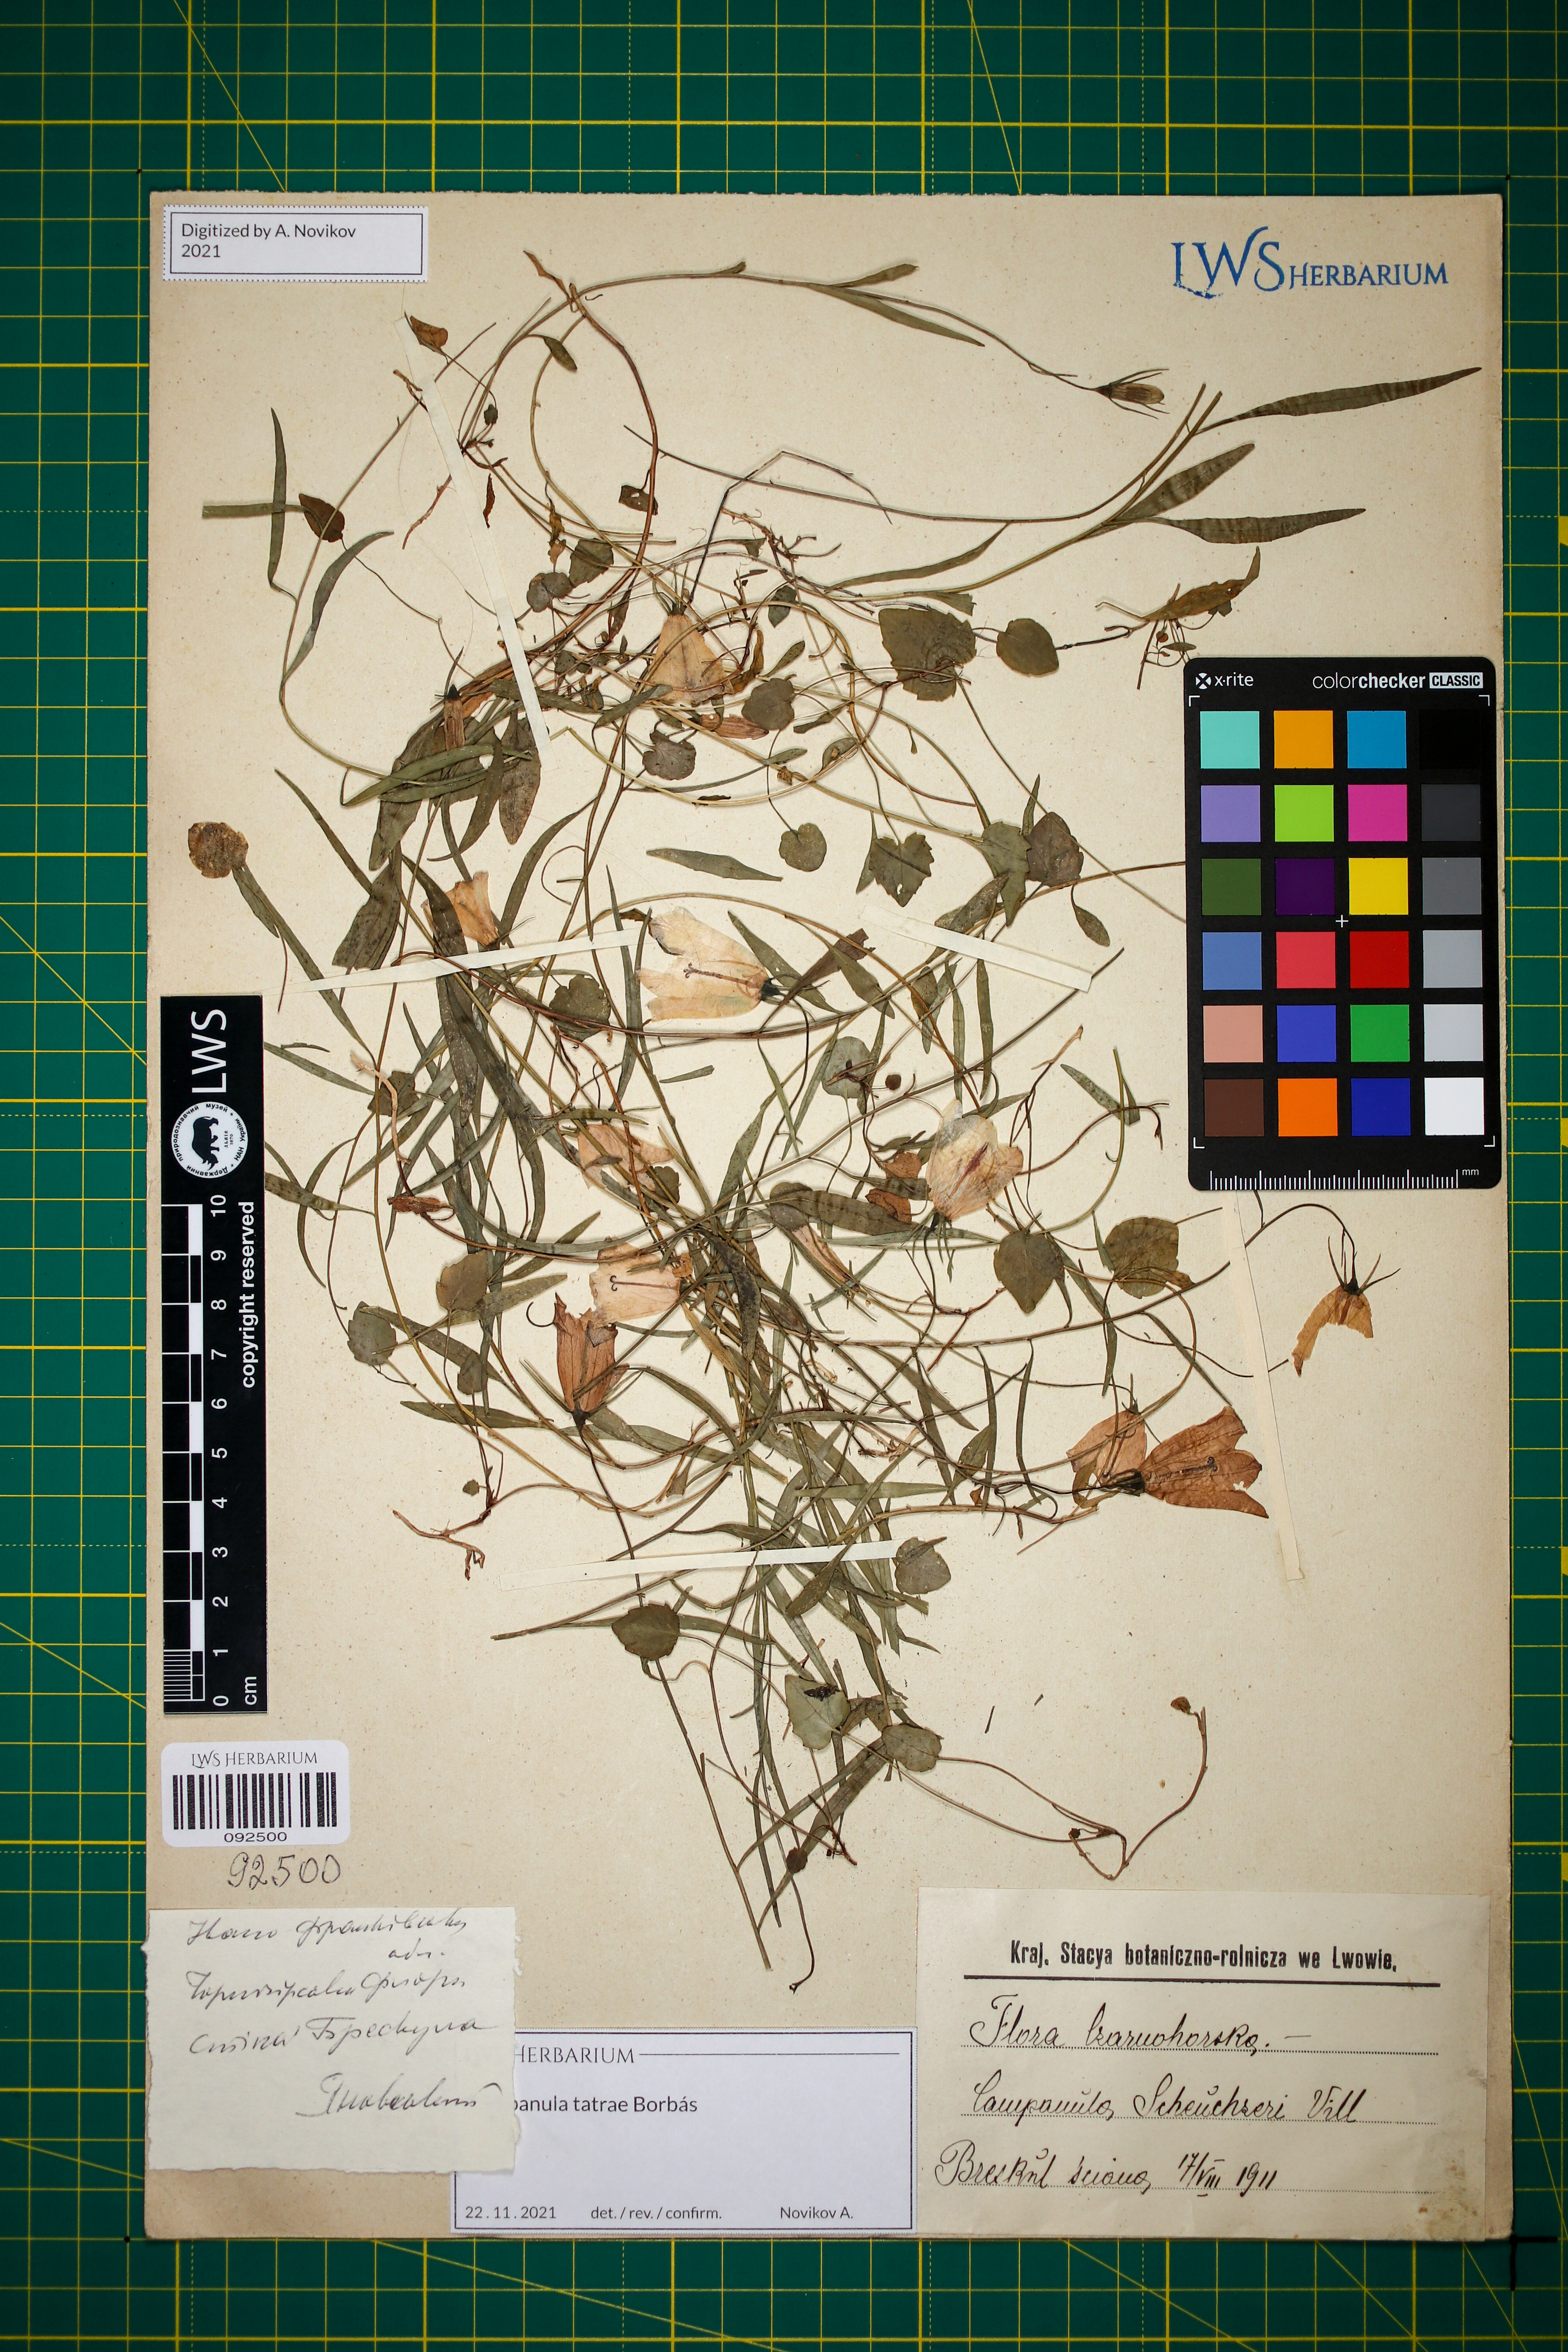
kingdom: Plantae
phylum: Tracheophyta
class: Magnoliopsida
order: Asterales
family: Campanulaceae
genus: Campanula
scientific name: Campanula tatrae
